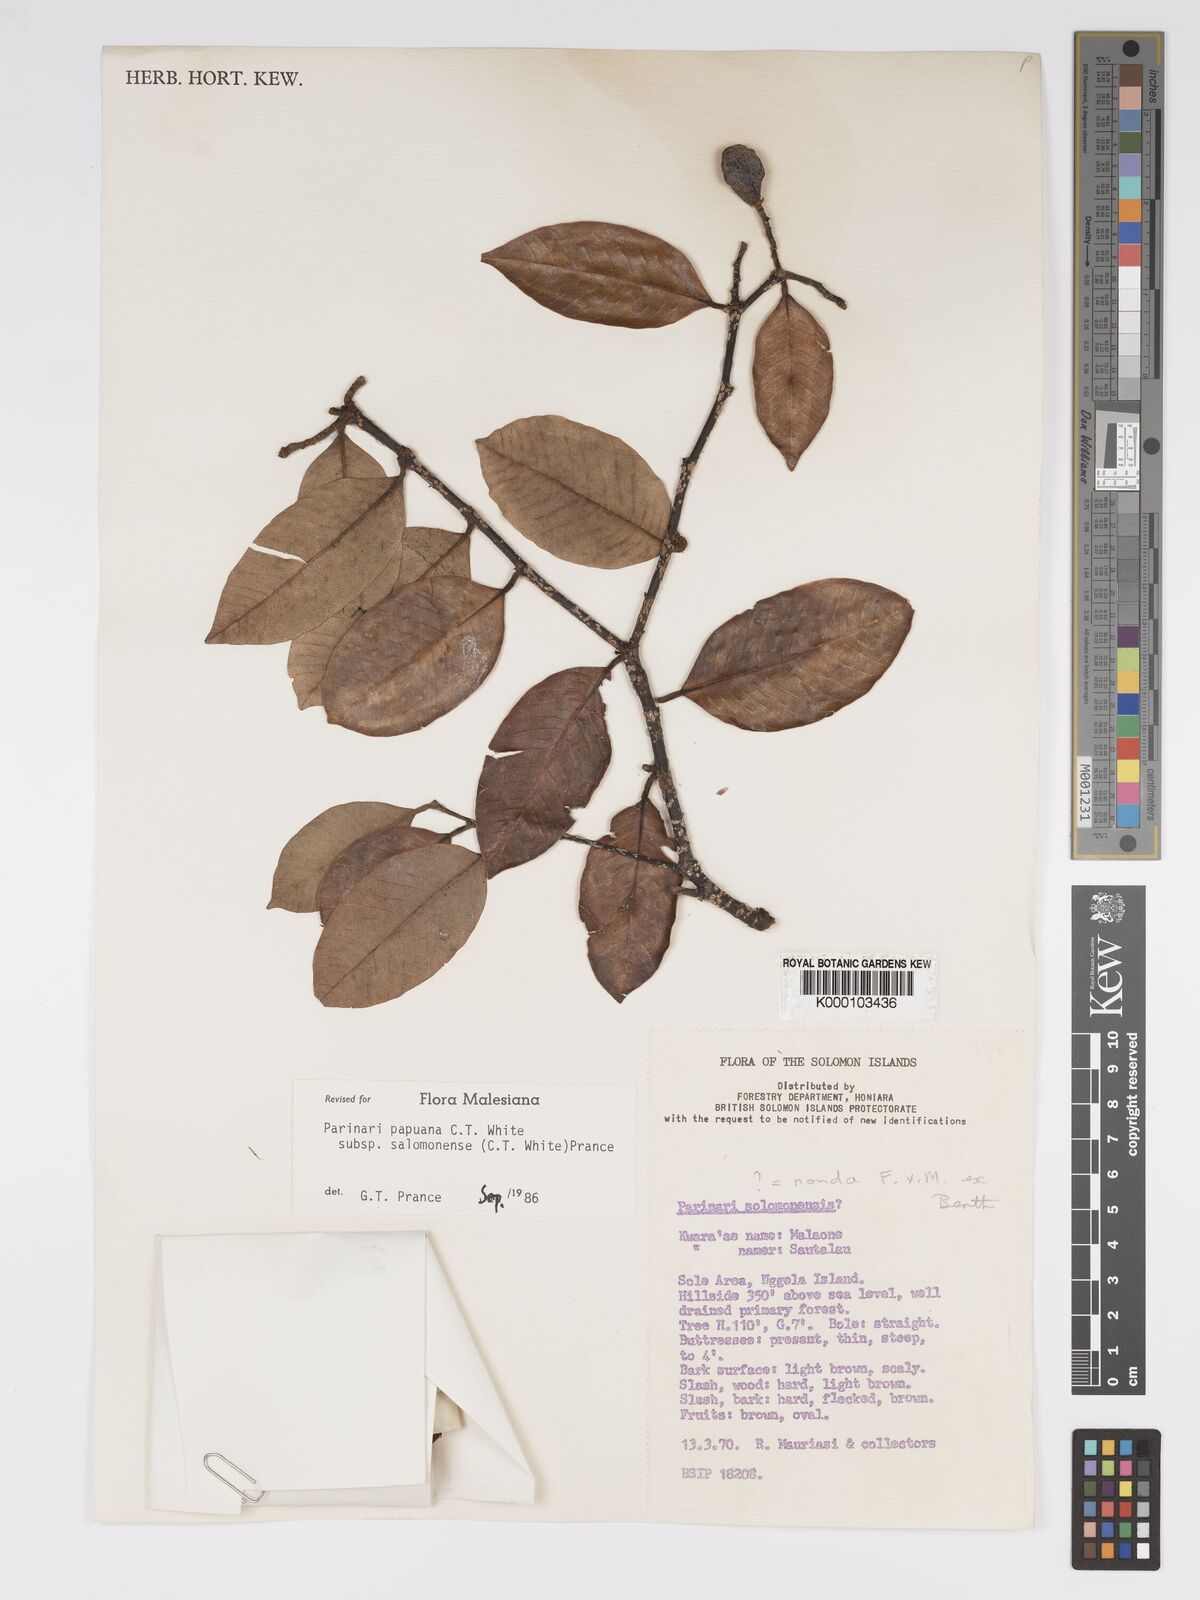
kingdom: Plantae
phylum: Tracheophyta
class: Magnoliopsida
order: Malpighiales
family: Chrysobalanaceae
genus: Parinari
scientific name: Parinari papuana
